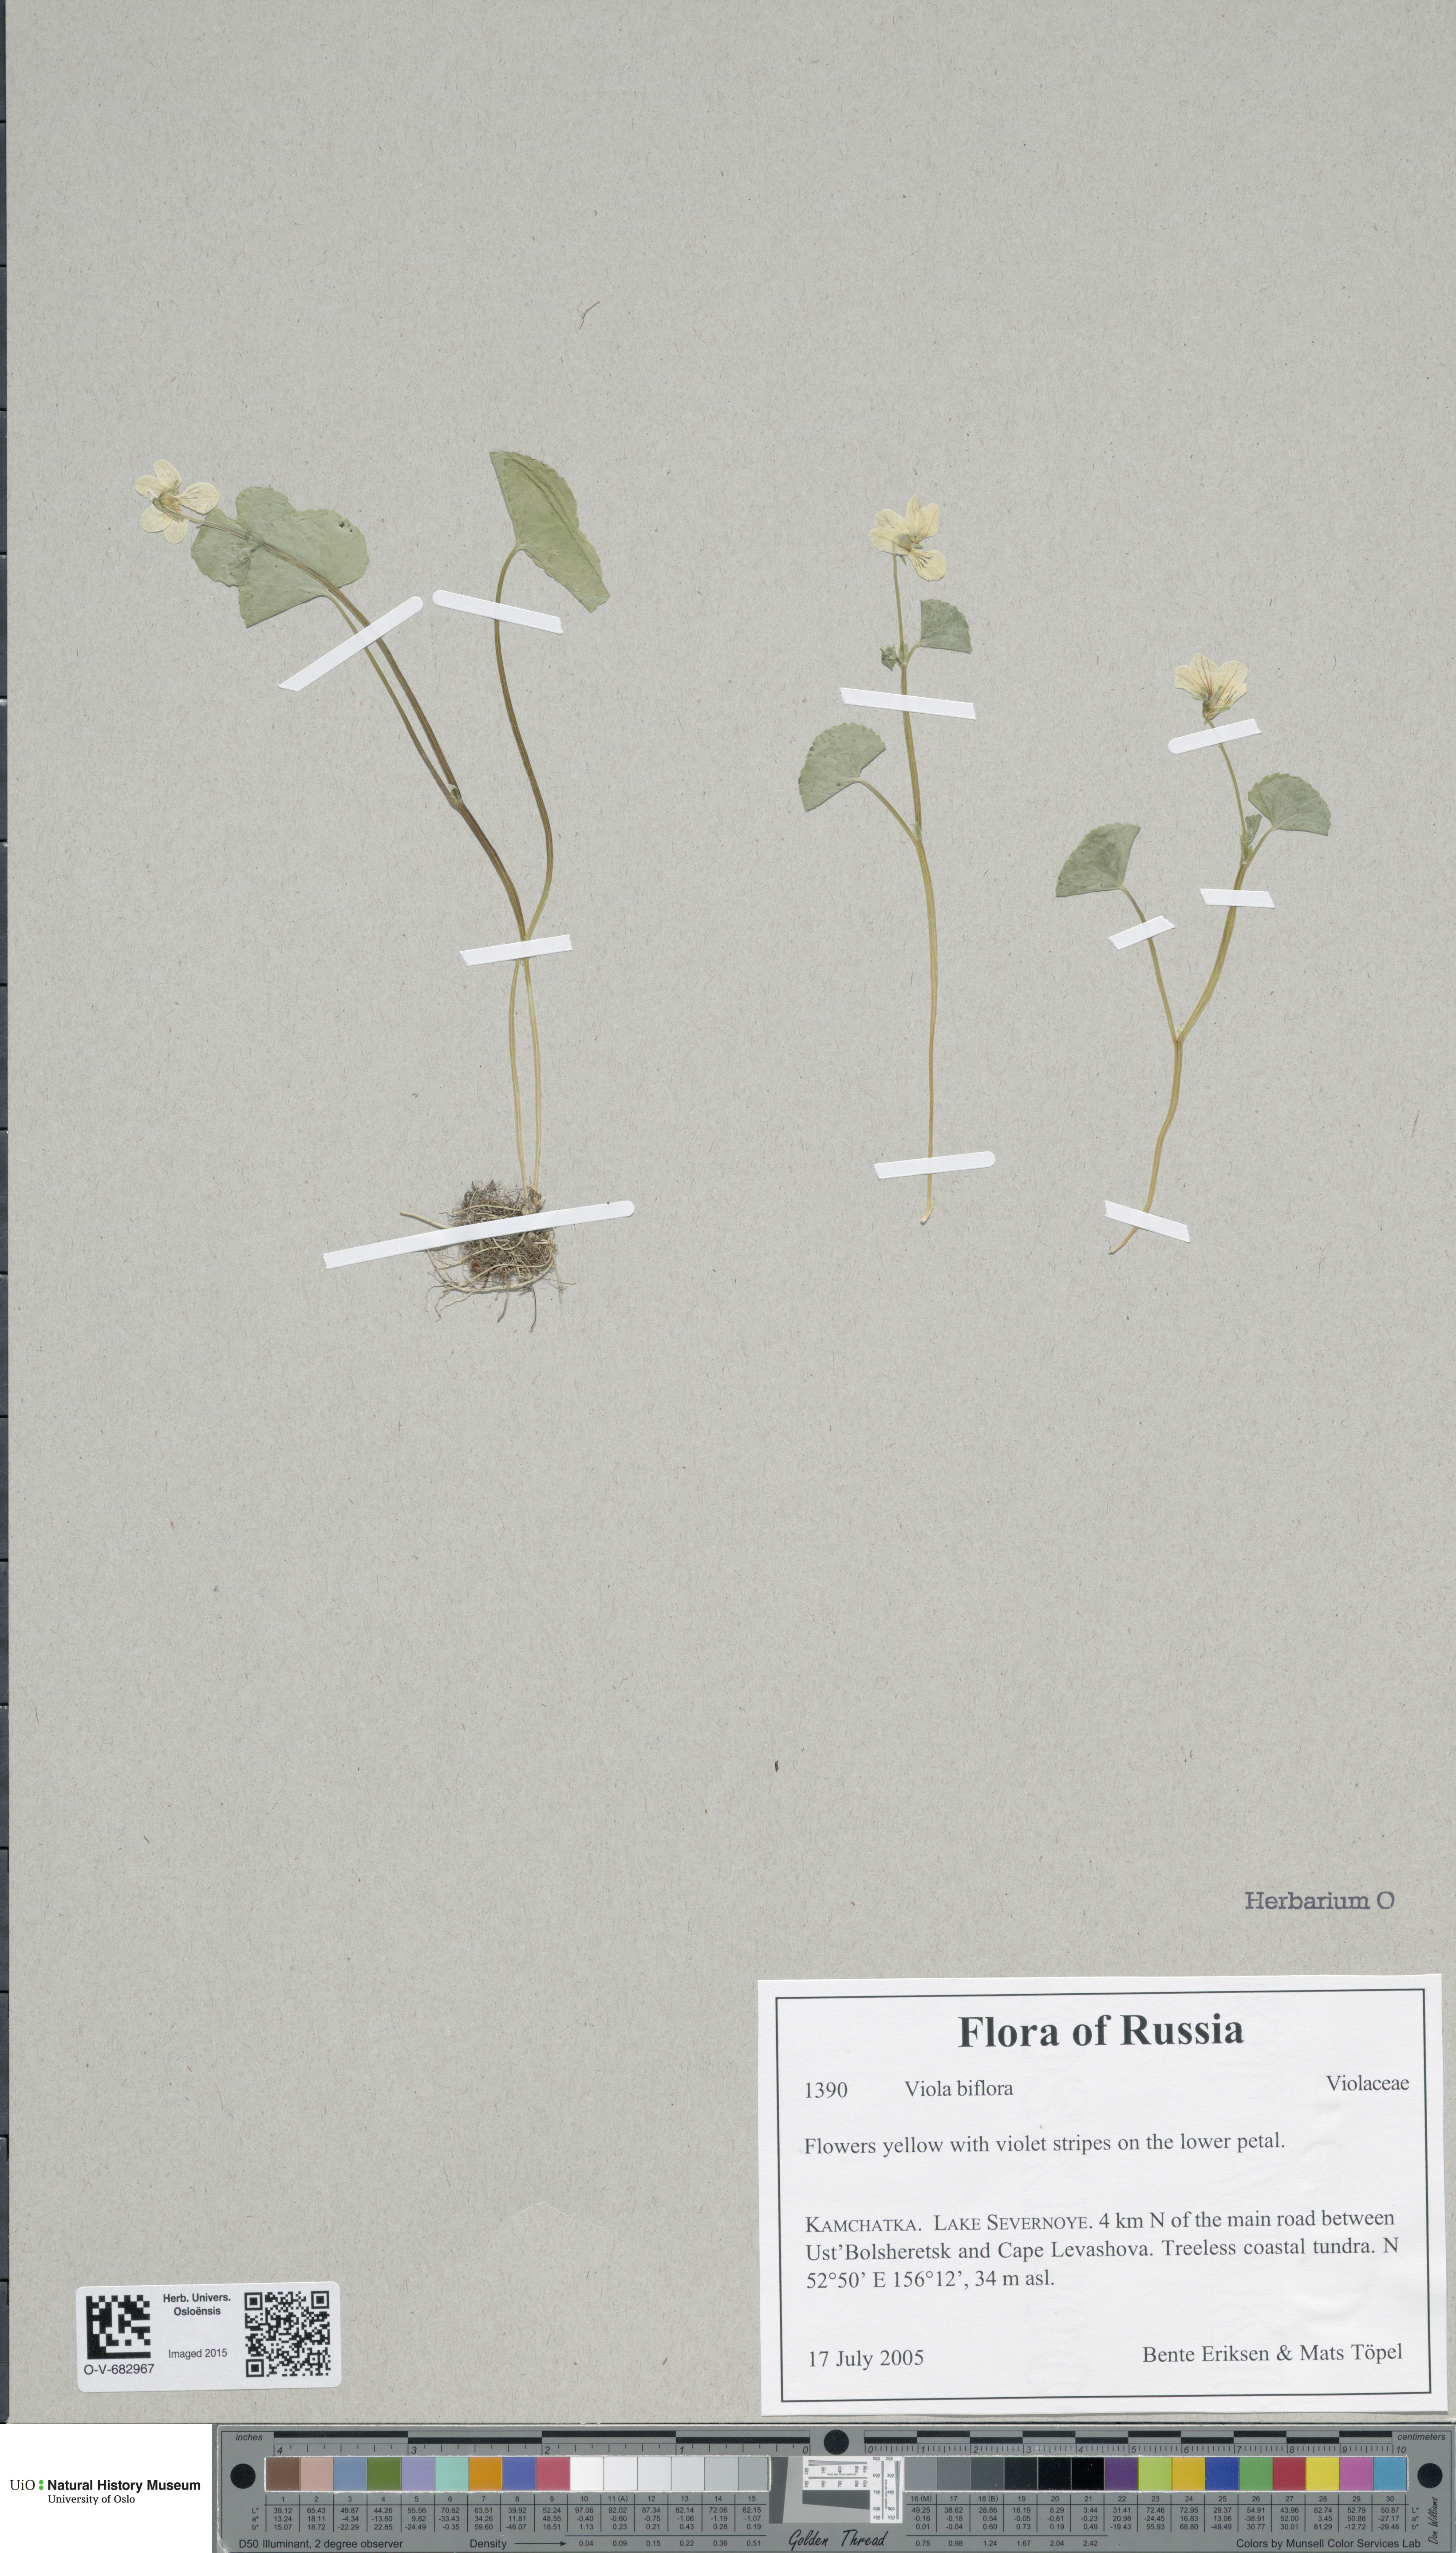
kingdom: Plantae
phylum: Tracheophyta
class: Magnoliopsida
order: Malpighiales
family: Violaceae
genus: Viola
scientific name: Viola biflora
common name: Alpine yellow violet
